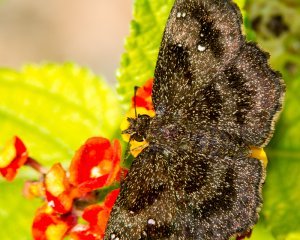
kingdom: Animalia
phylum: Arthropoda
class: Insecta
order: Lepidoptera
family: Hesperiidae
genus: Staphylus
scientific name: Staphylus mazans
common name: Mazans Scallopwing
